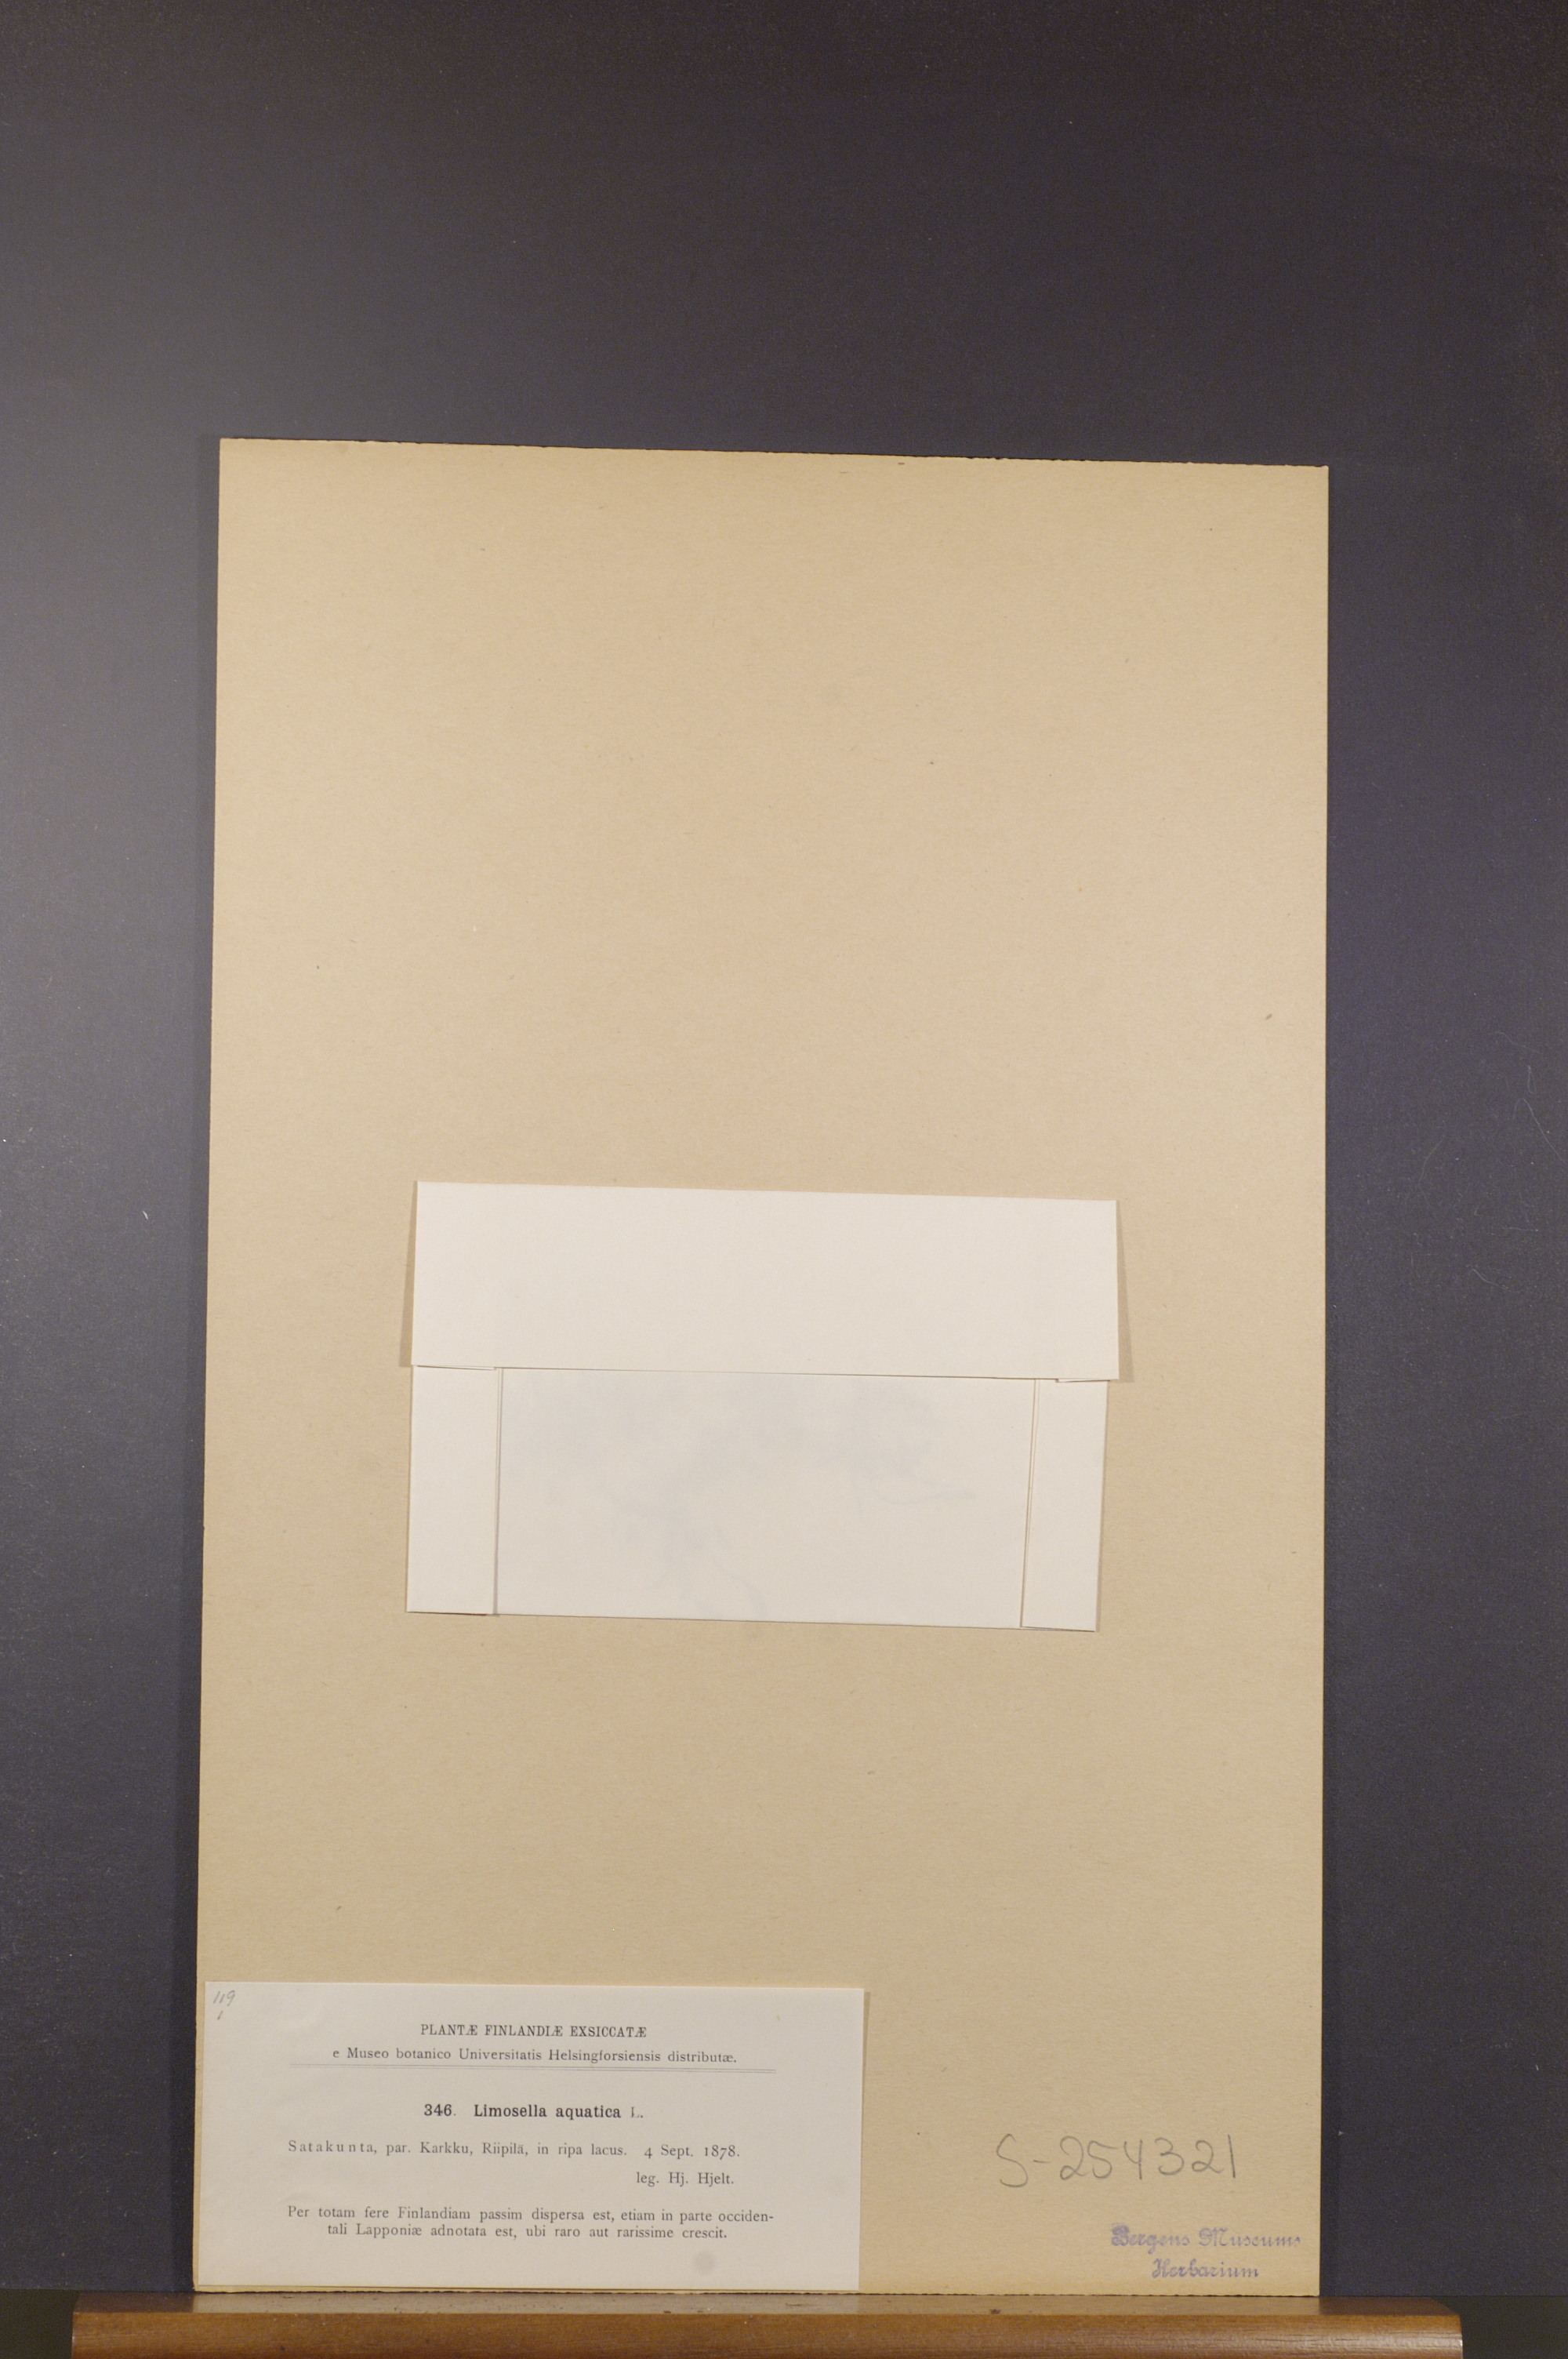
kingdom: Plantae
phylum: Tracheophyta
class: Magnoliopsida
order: Lamiales
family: Scrophulariaceae
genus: Limosella
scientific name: Limosella aquatica
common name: Mudwort
